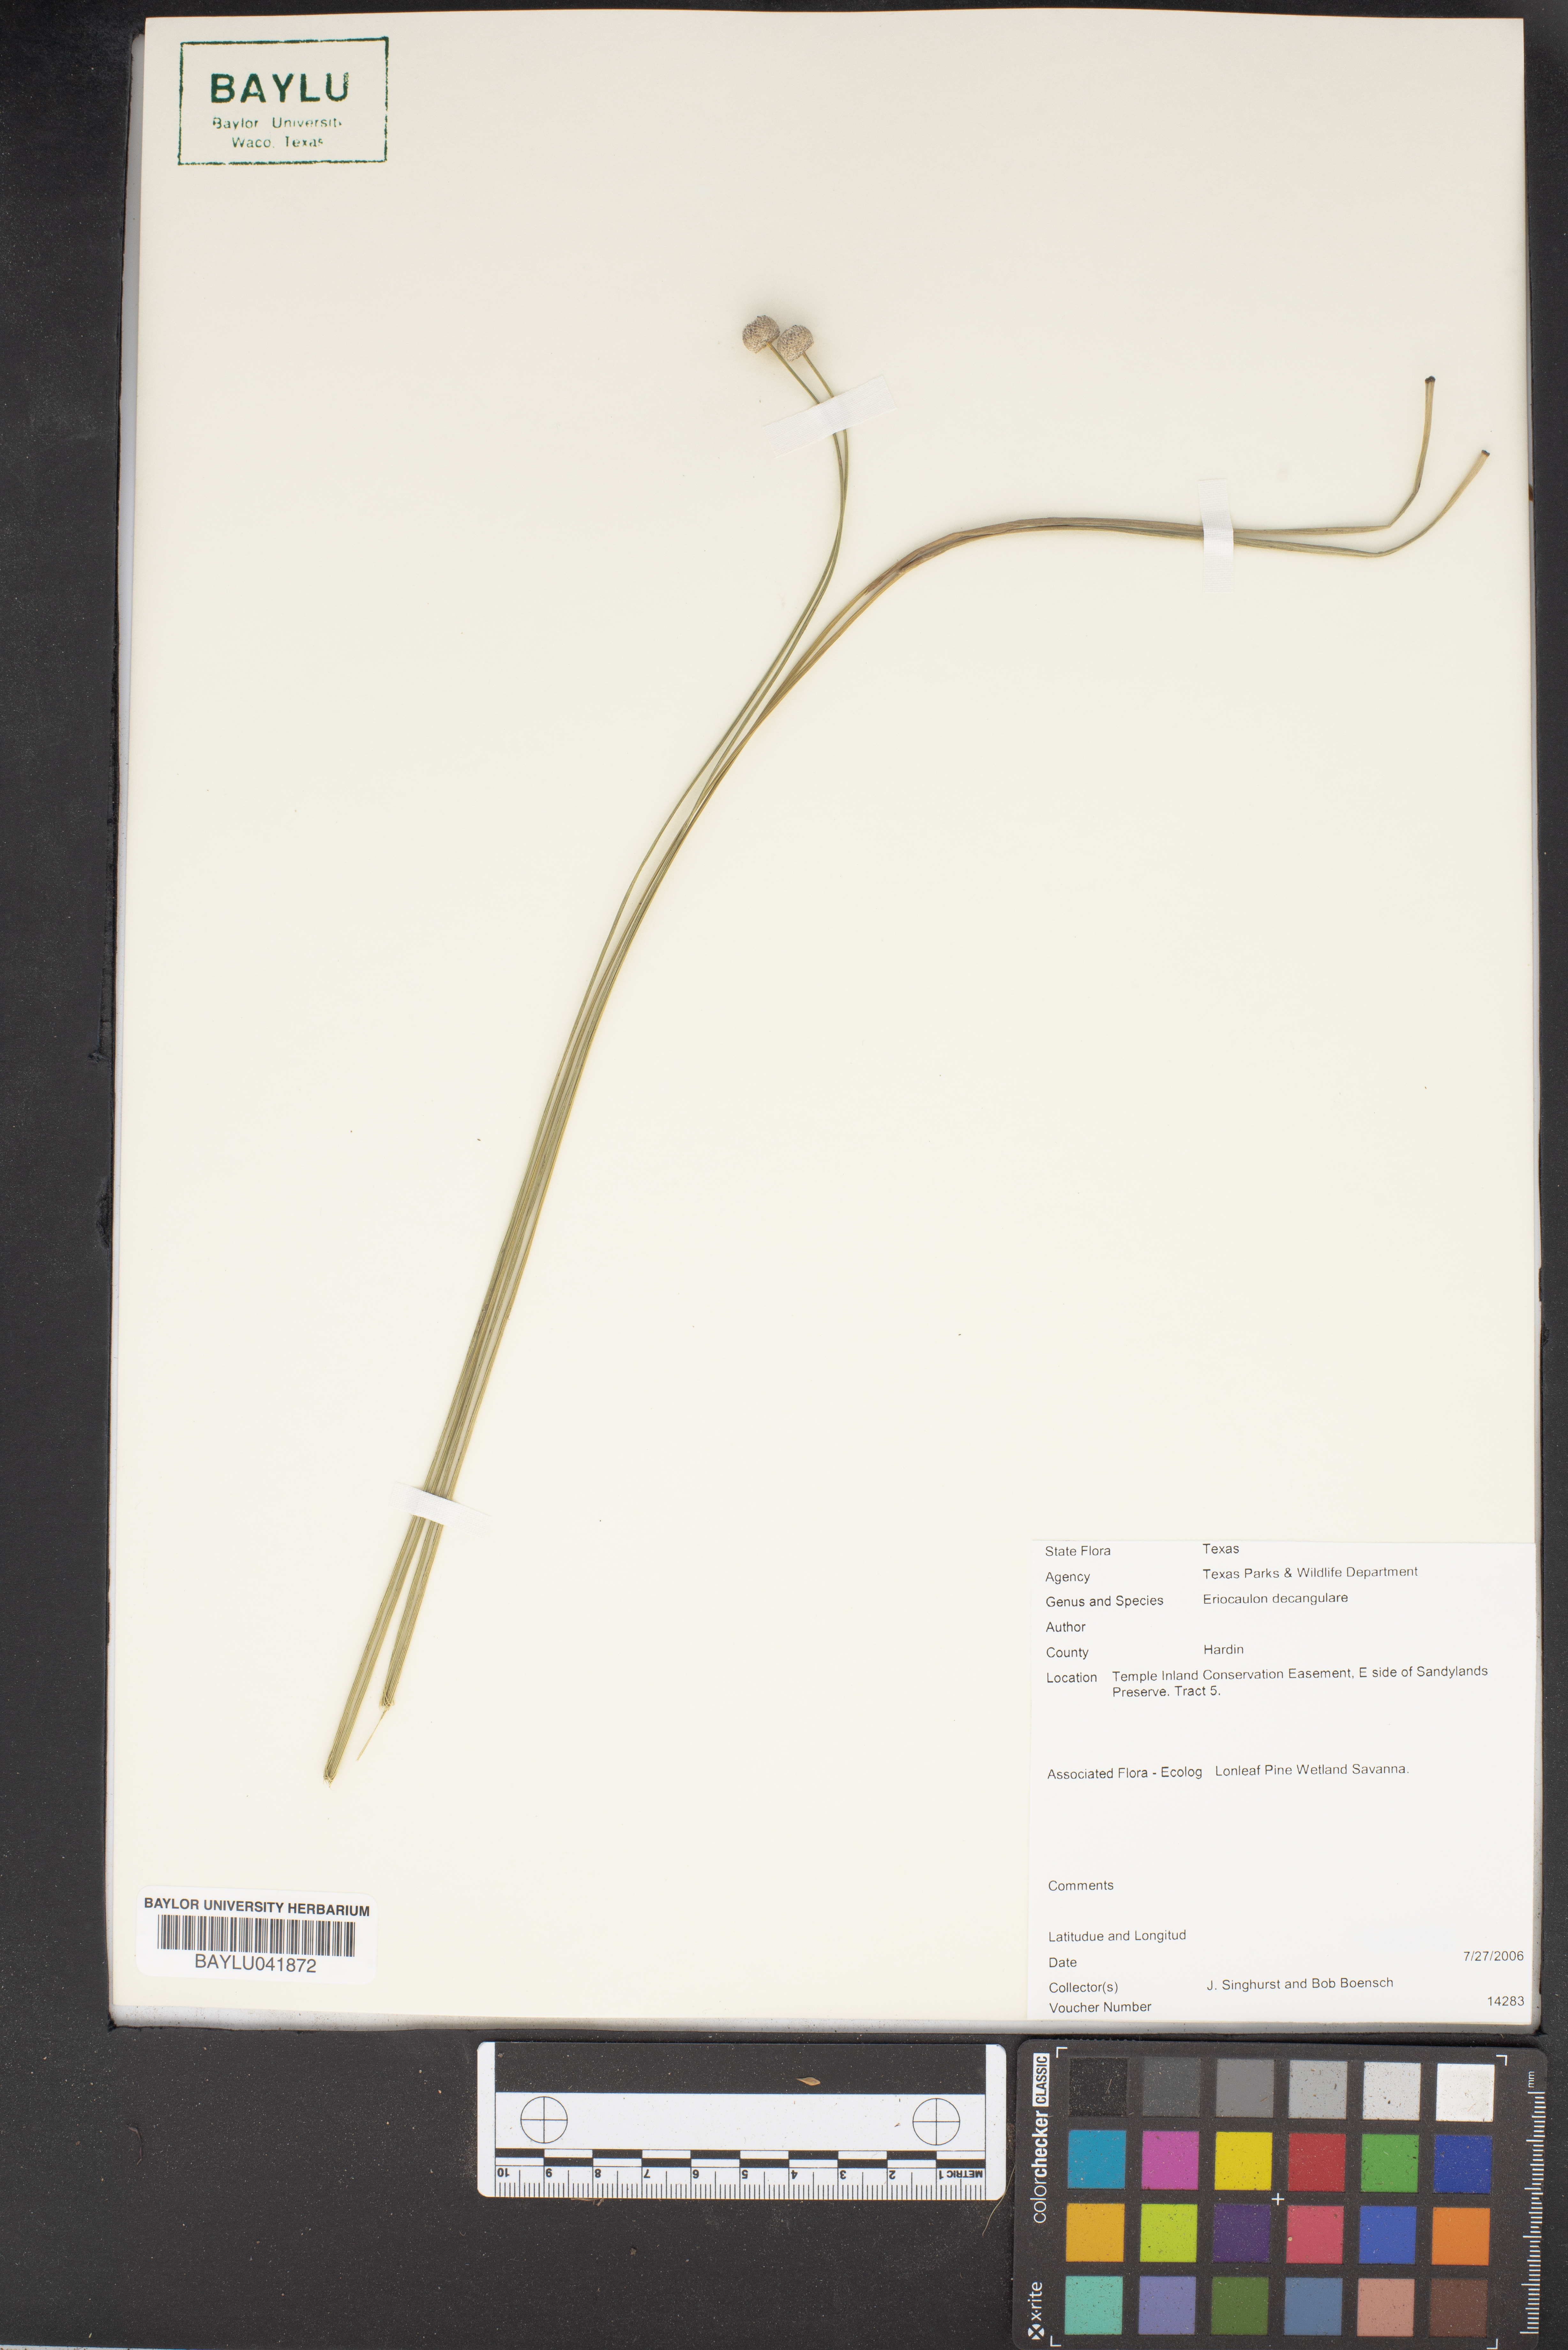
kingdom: Plantae
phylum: Tracheophyta
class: Liliopsida
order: Poales
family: Eriocaulaceae
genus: Eriocaulon
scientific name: Eriocaulon decangulare
